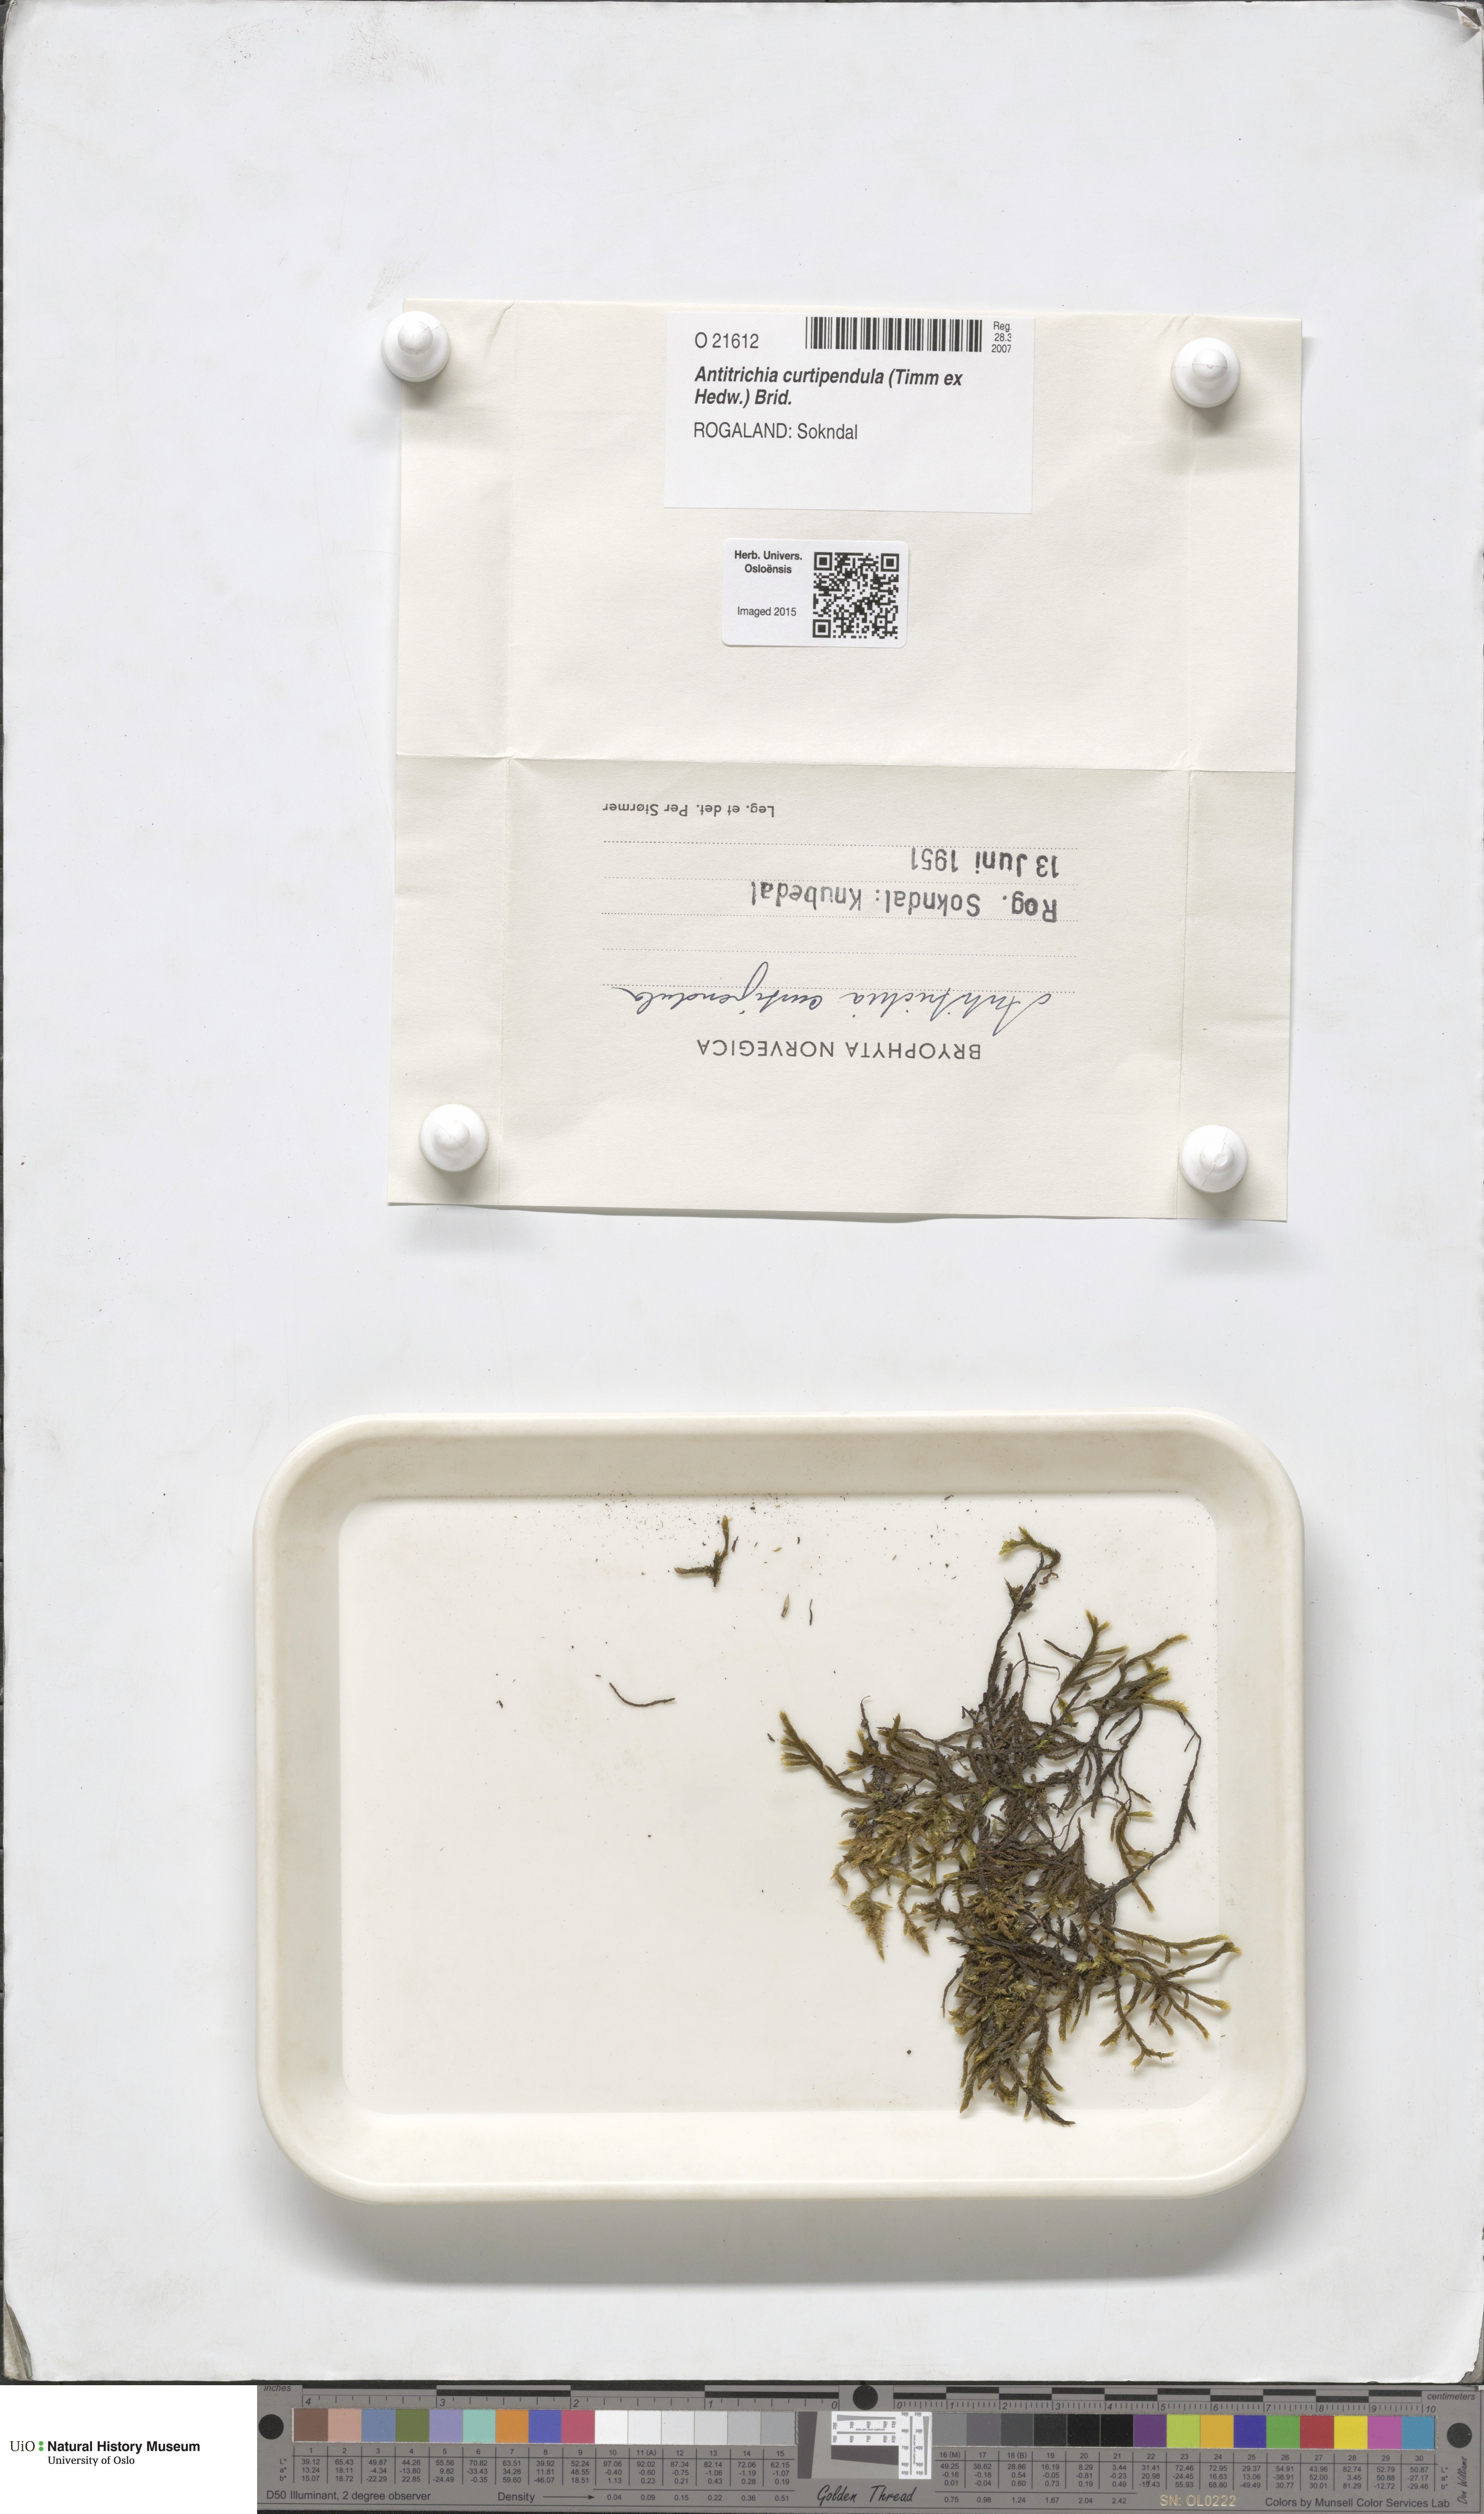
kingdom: Plantae
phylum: Bryophyta
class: Bryopsida
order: Hypnales
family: Antitrichiaceae
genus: Antitrichia
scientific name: Antitrichia curtipendula
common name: Pendulous wing-moss
